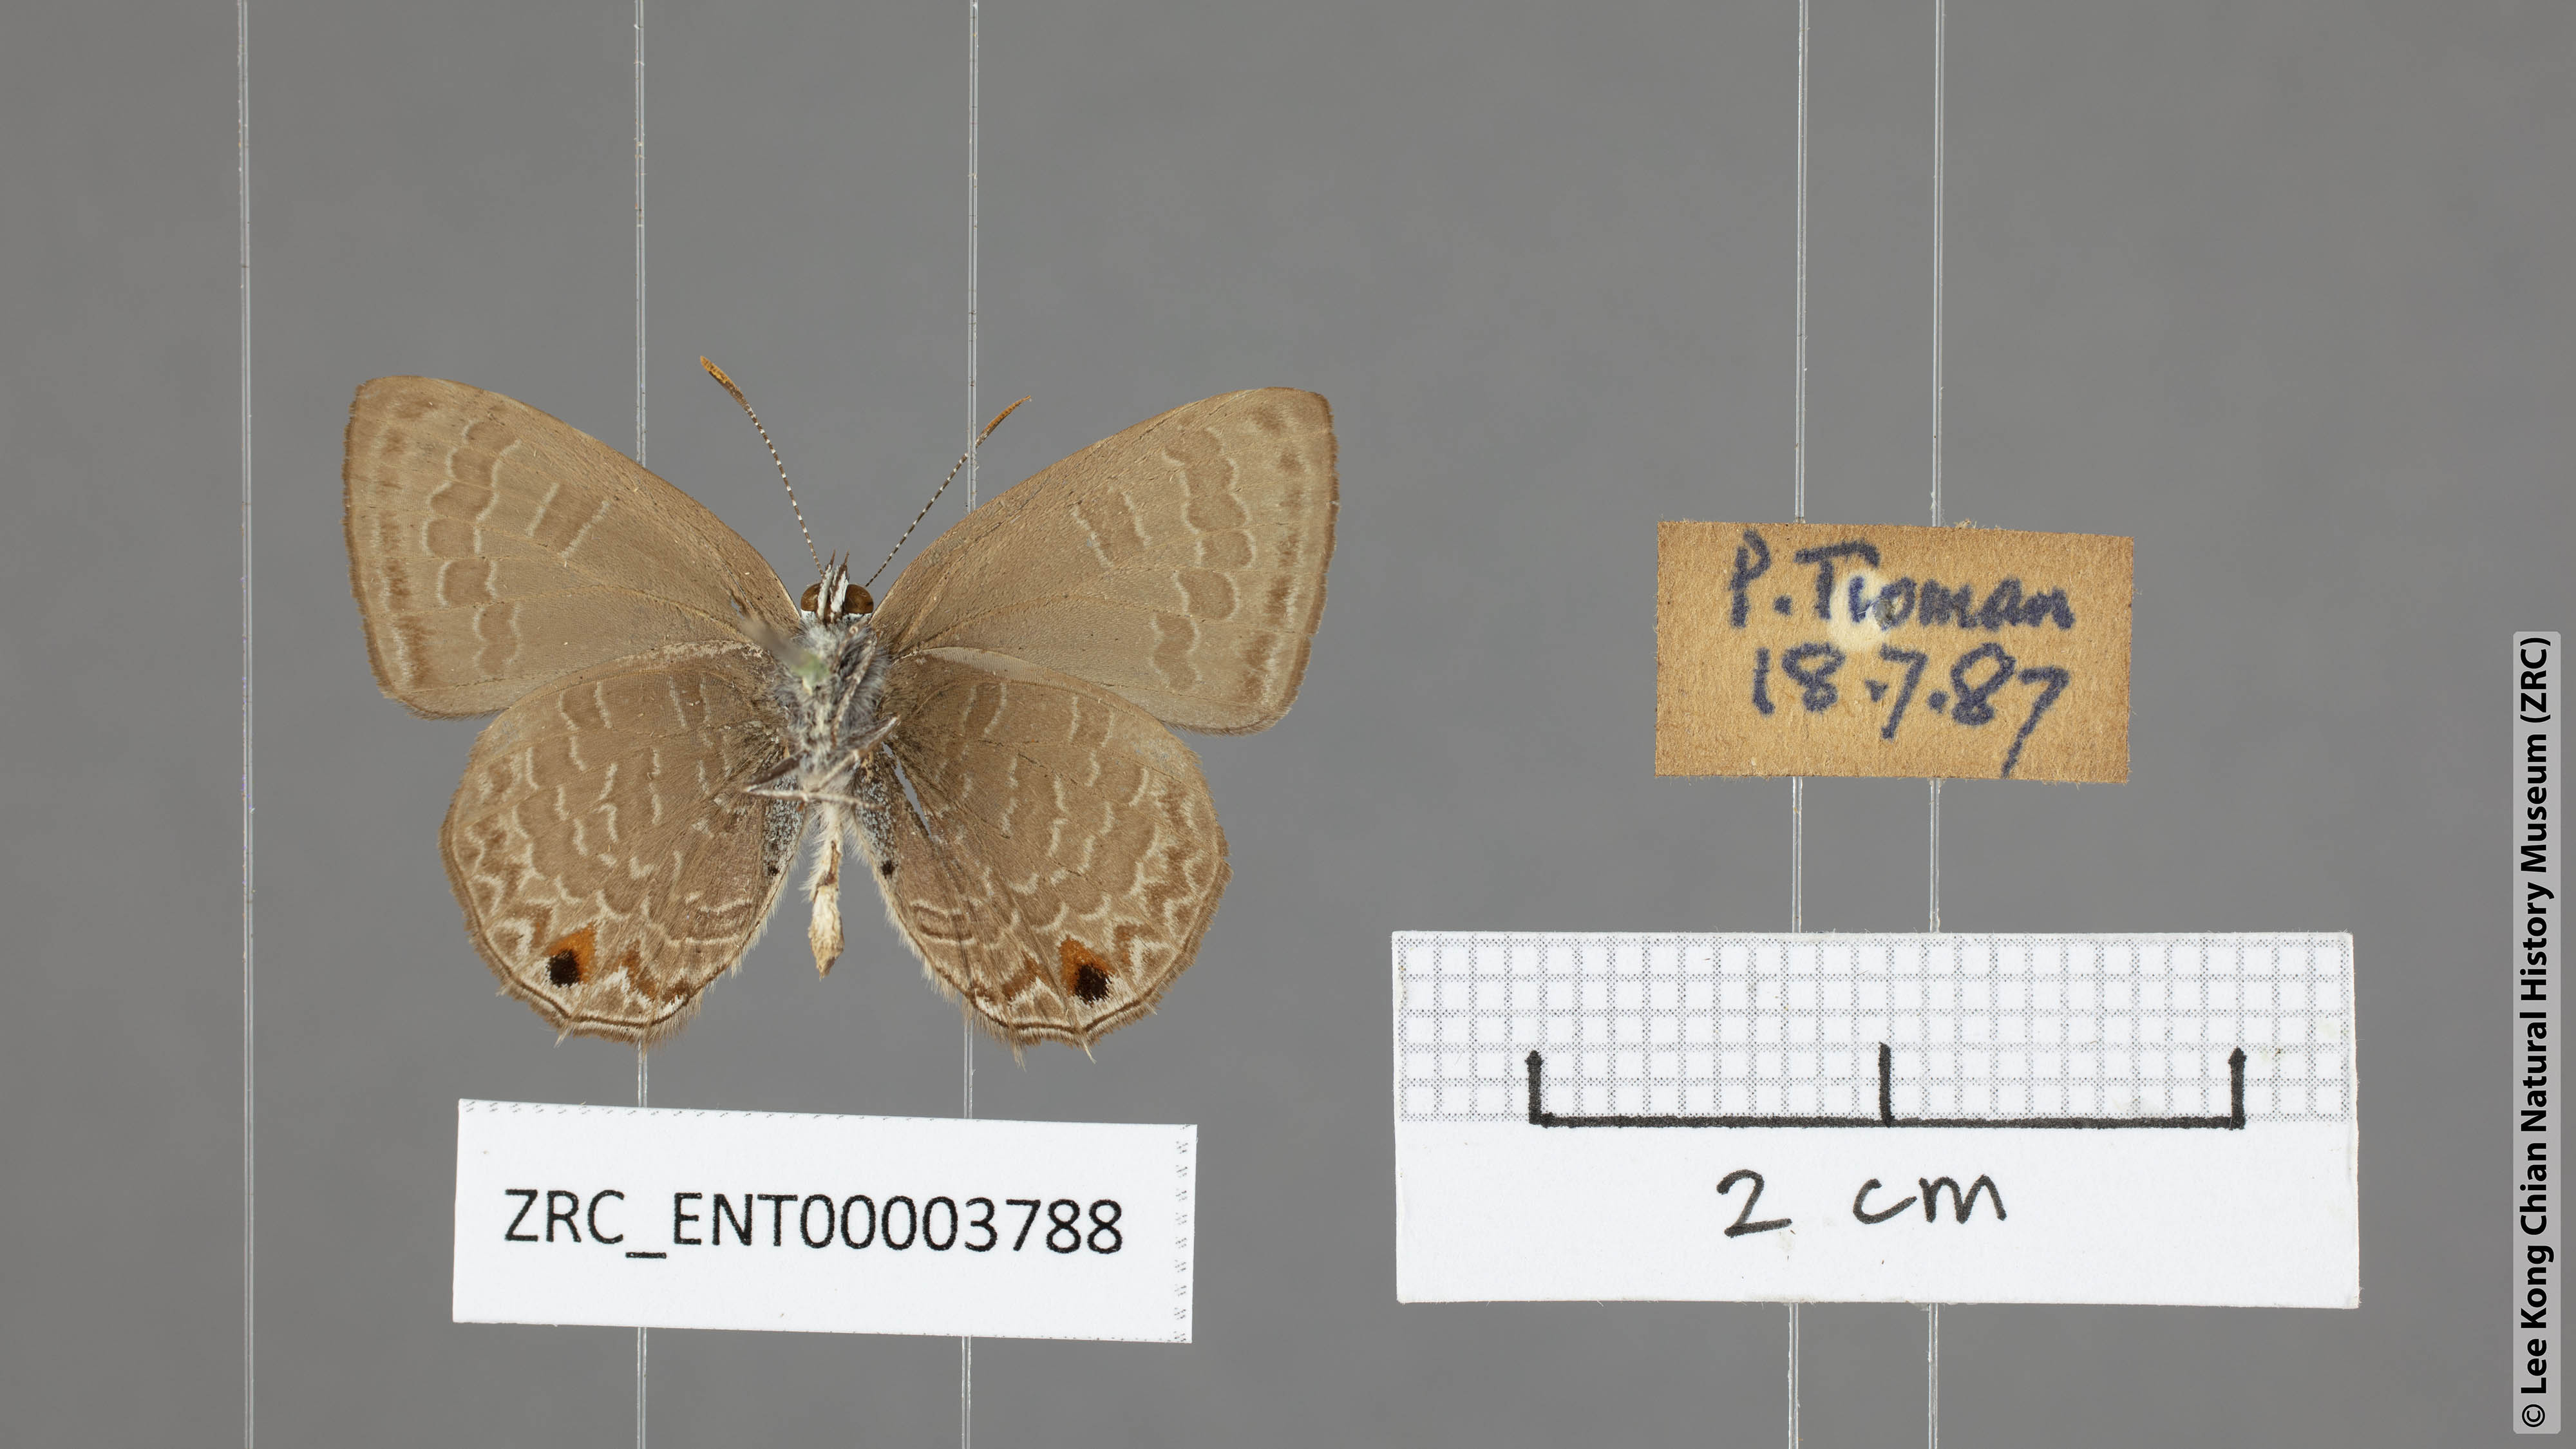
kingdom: Animalia
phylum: Arthropoda
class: Insecta
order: Lepidoptera
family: Lycaenidae
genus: Anthene
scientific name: Anthene emolus
